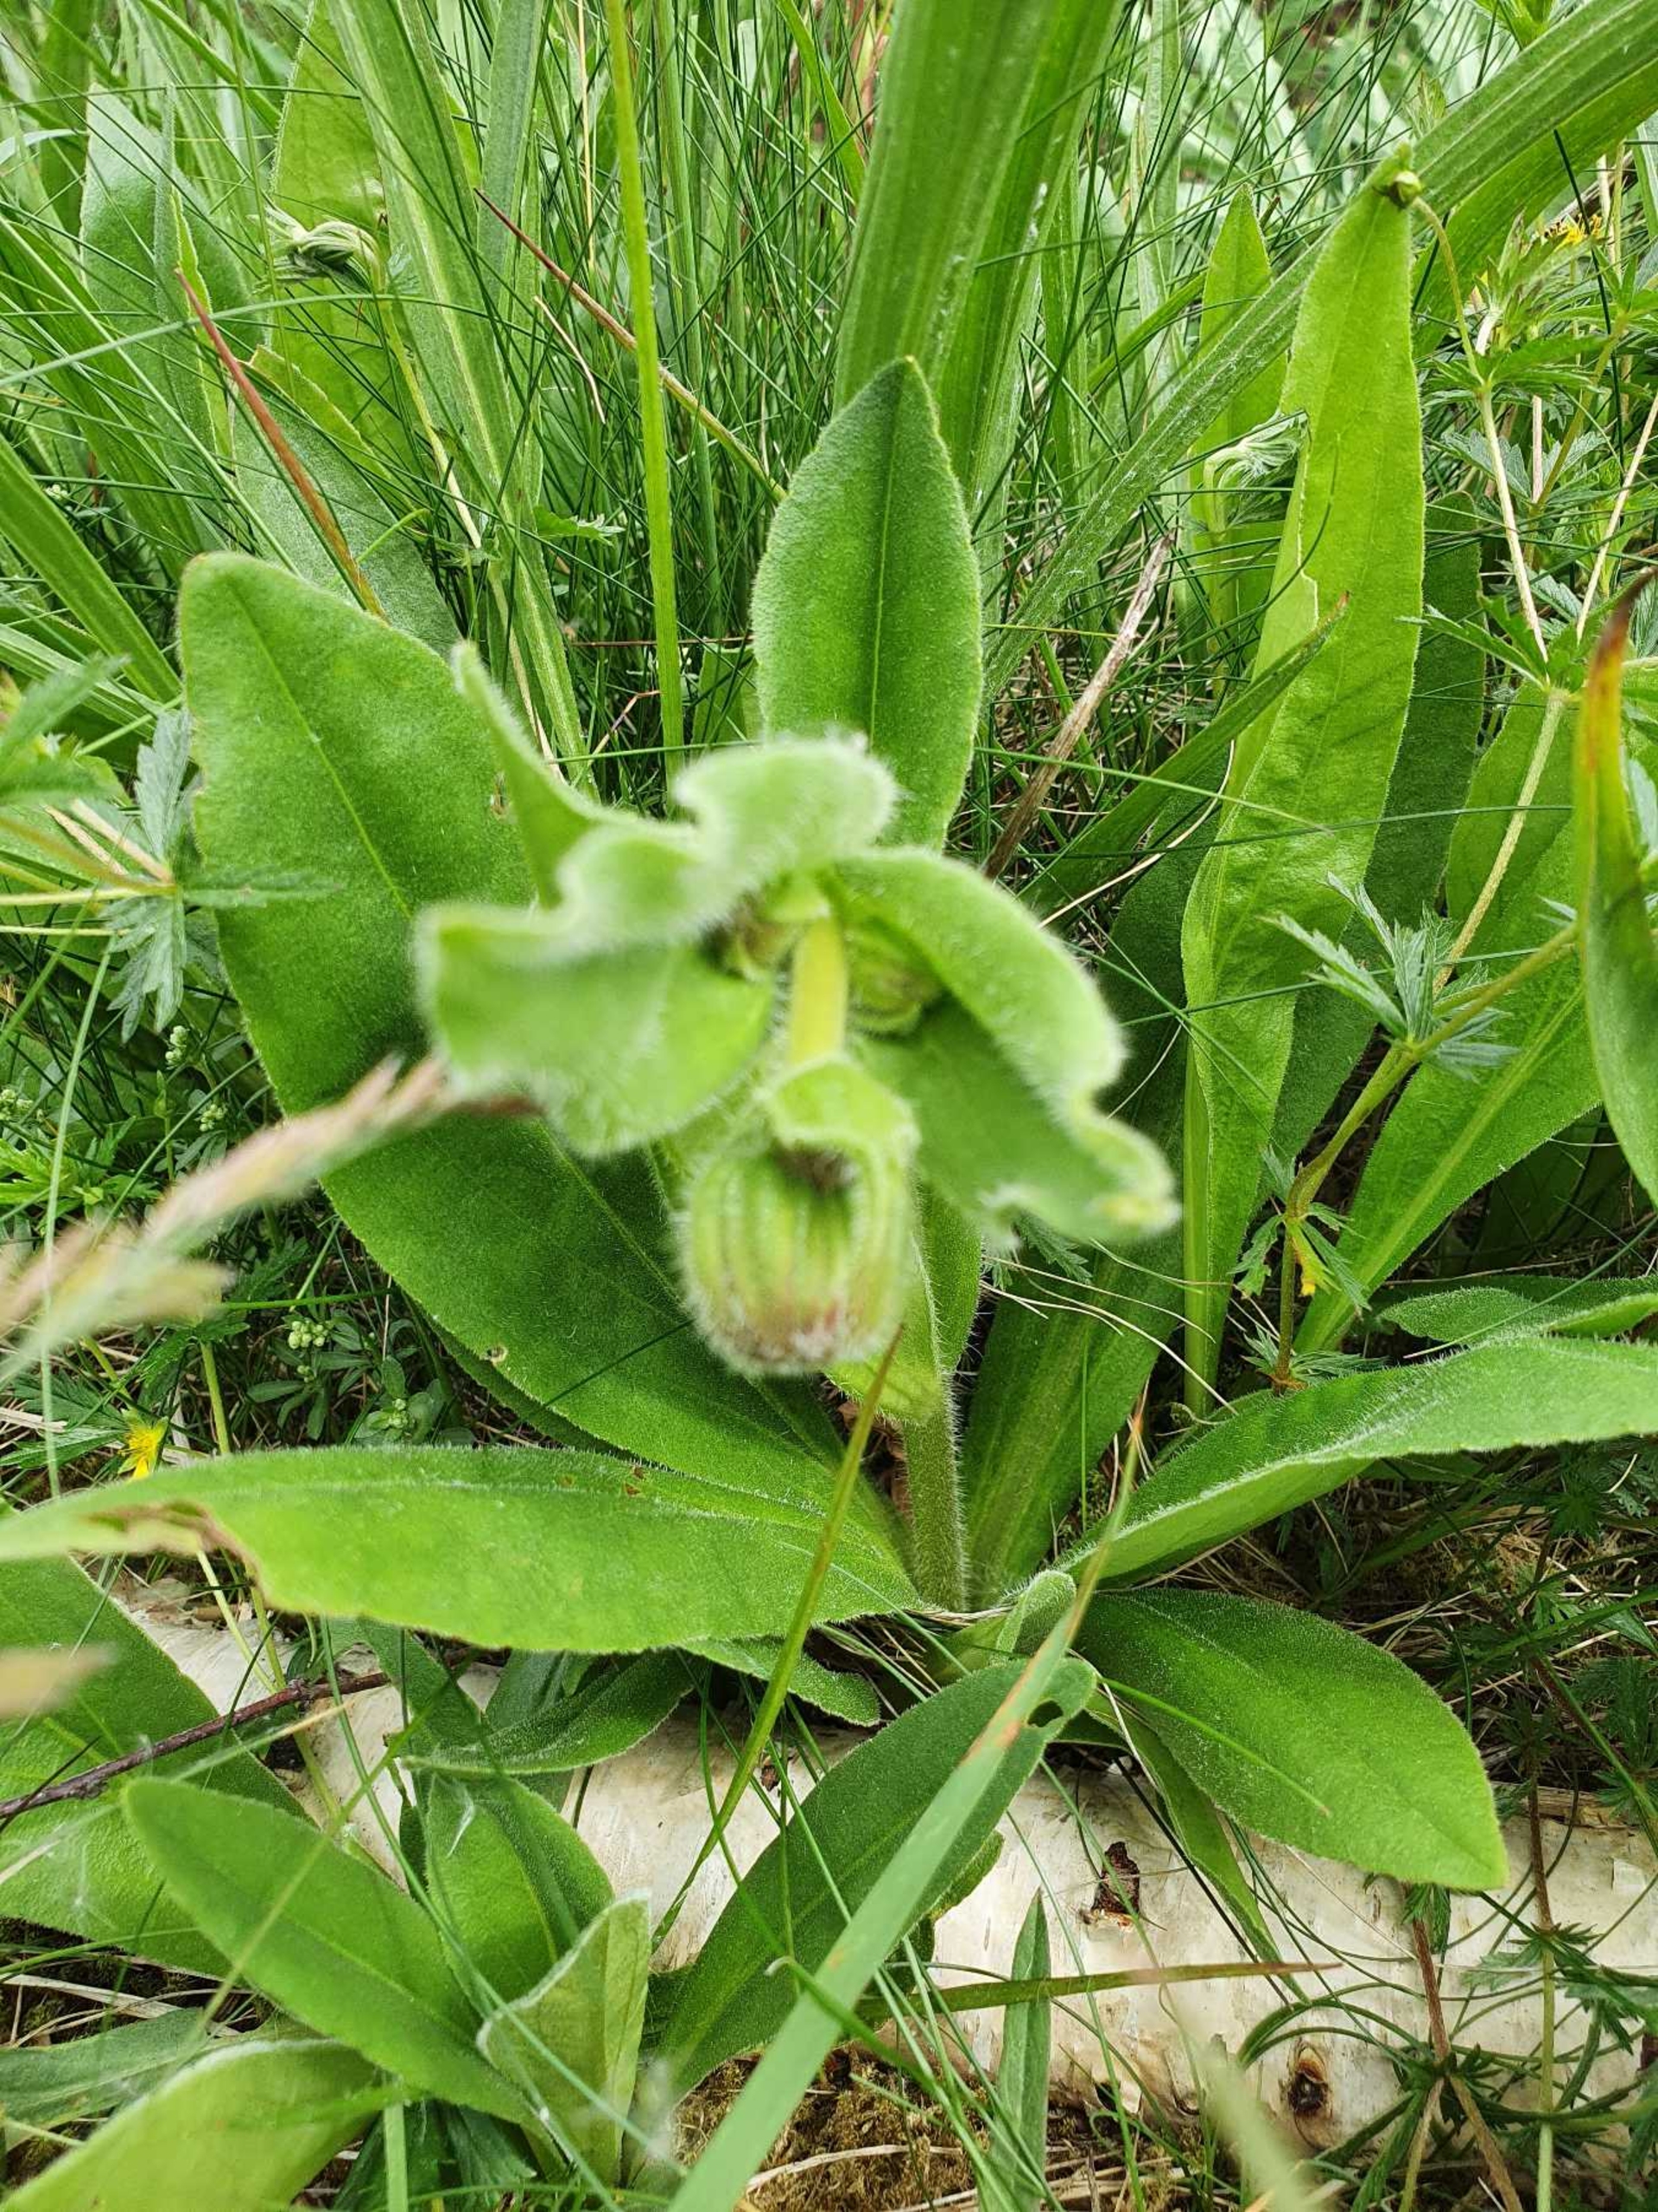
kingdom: Plantae
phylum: Tracheophyta
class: Magnoliopsida
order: Asterales
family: Asteraceae
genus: Arnica
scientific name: Arnica montana
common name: Guldblomme
